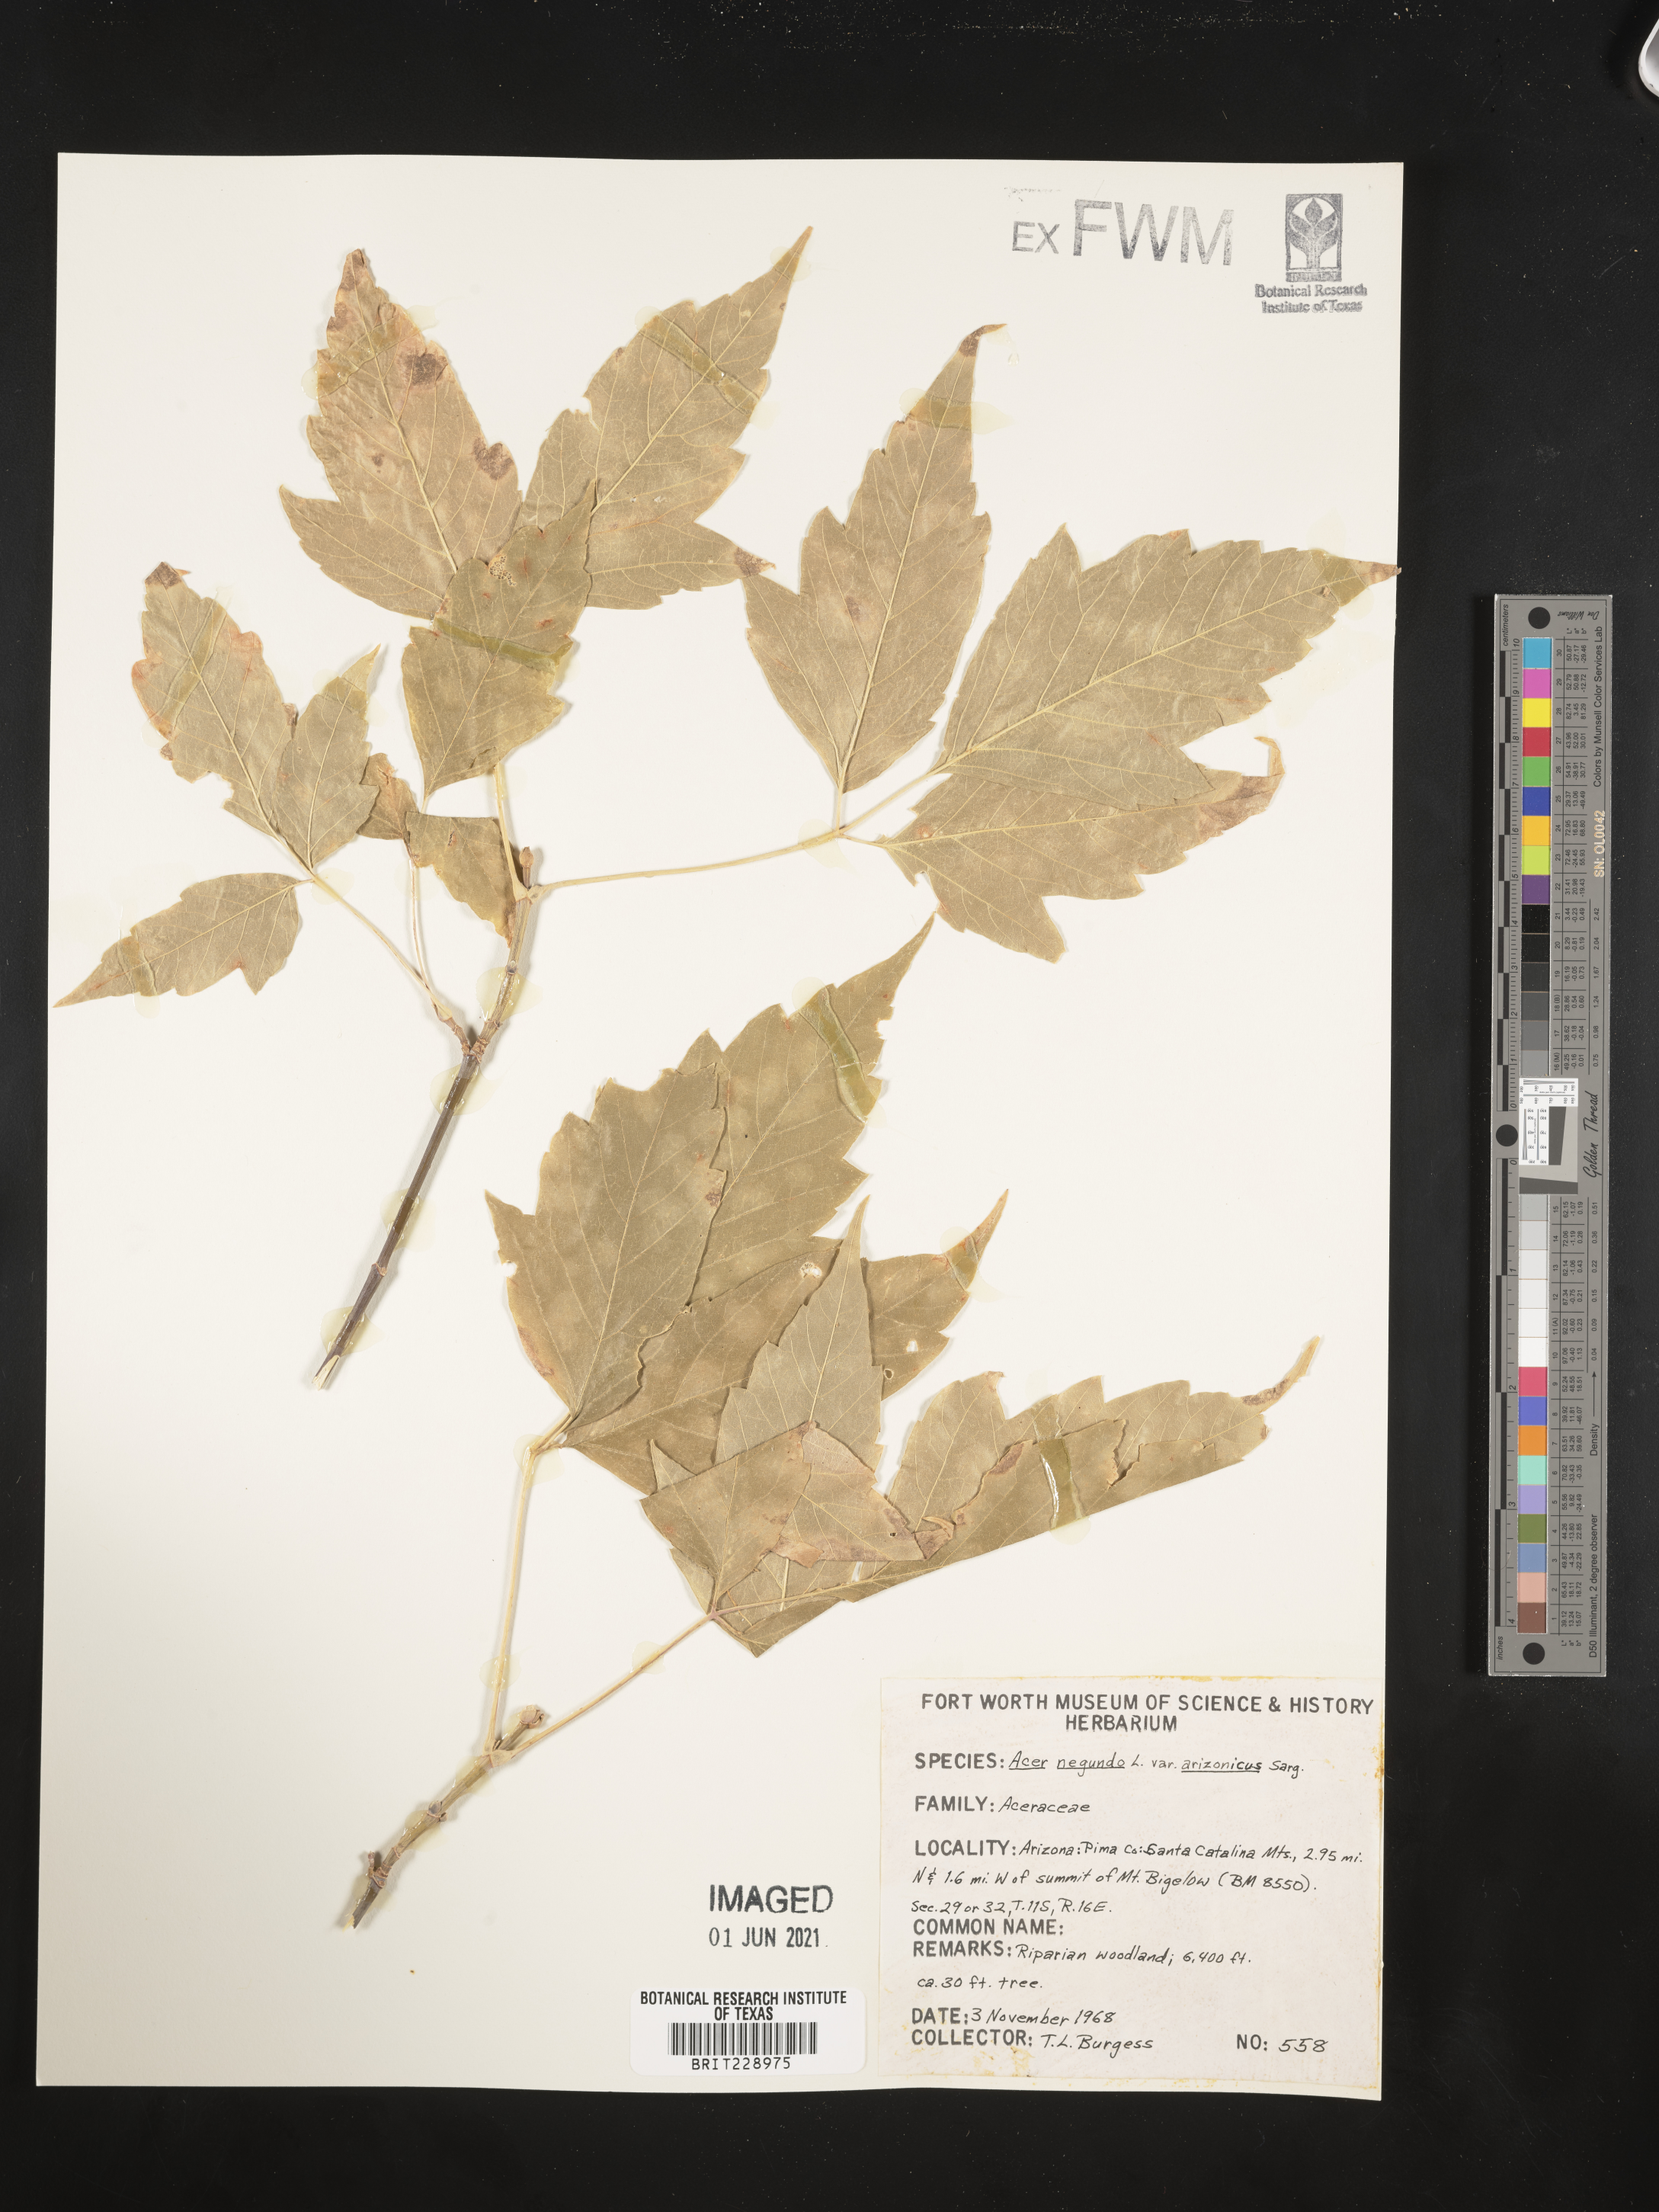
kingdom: Plantae
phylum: Tracheophyta
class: Magnoliopsida
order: Sapindales
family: Sapindaceae
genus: Acer
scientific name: Acer negundo
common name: Ashleaf maple
